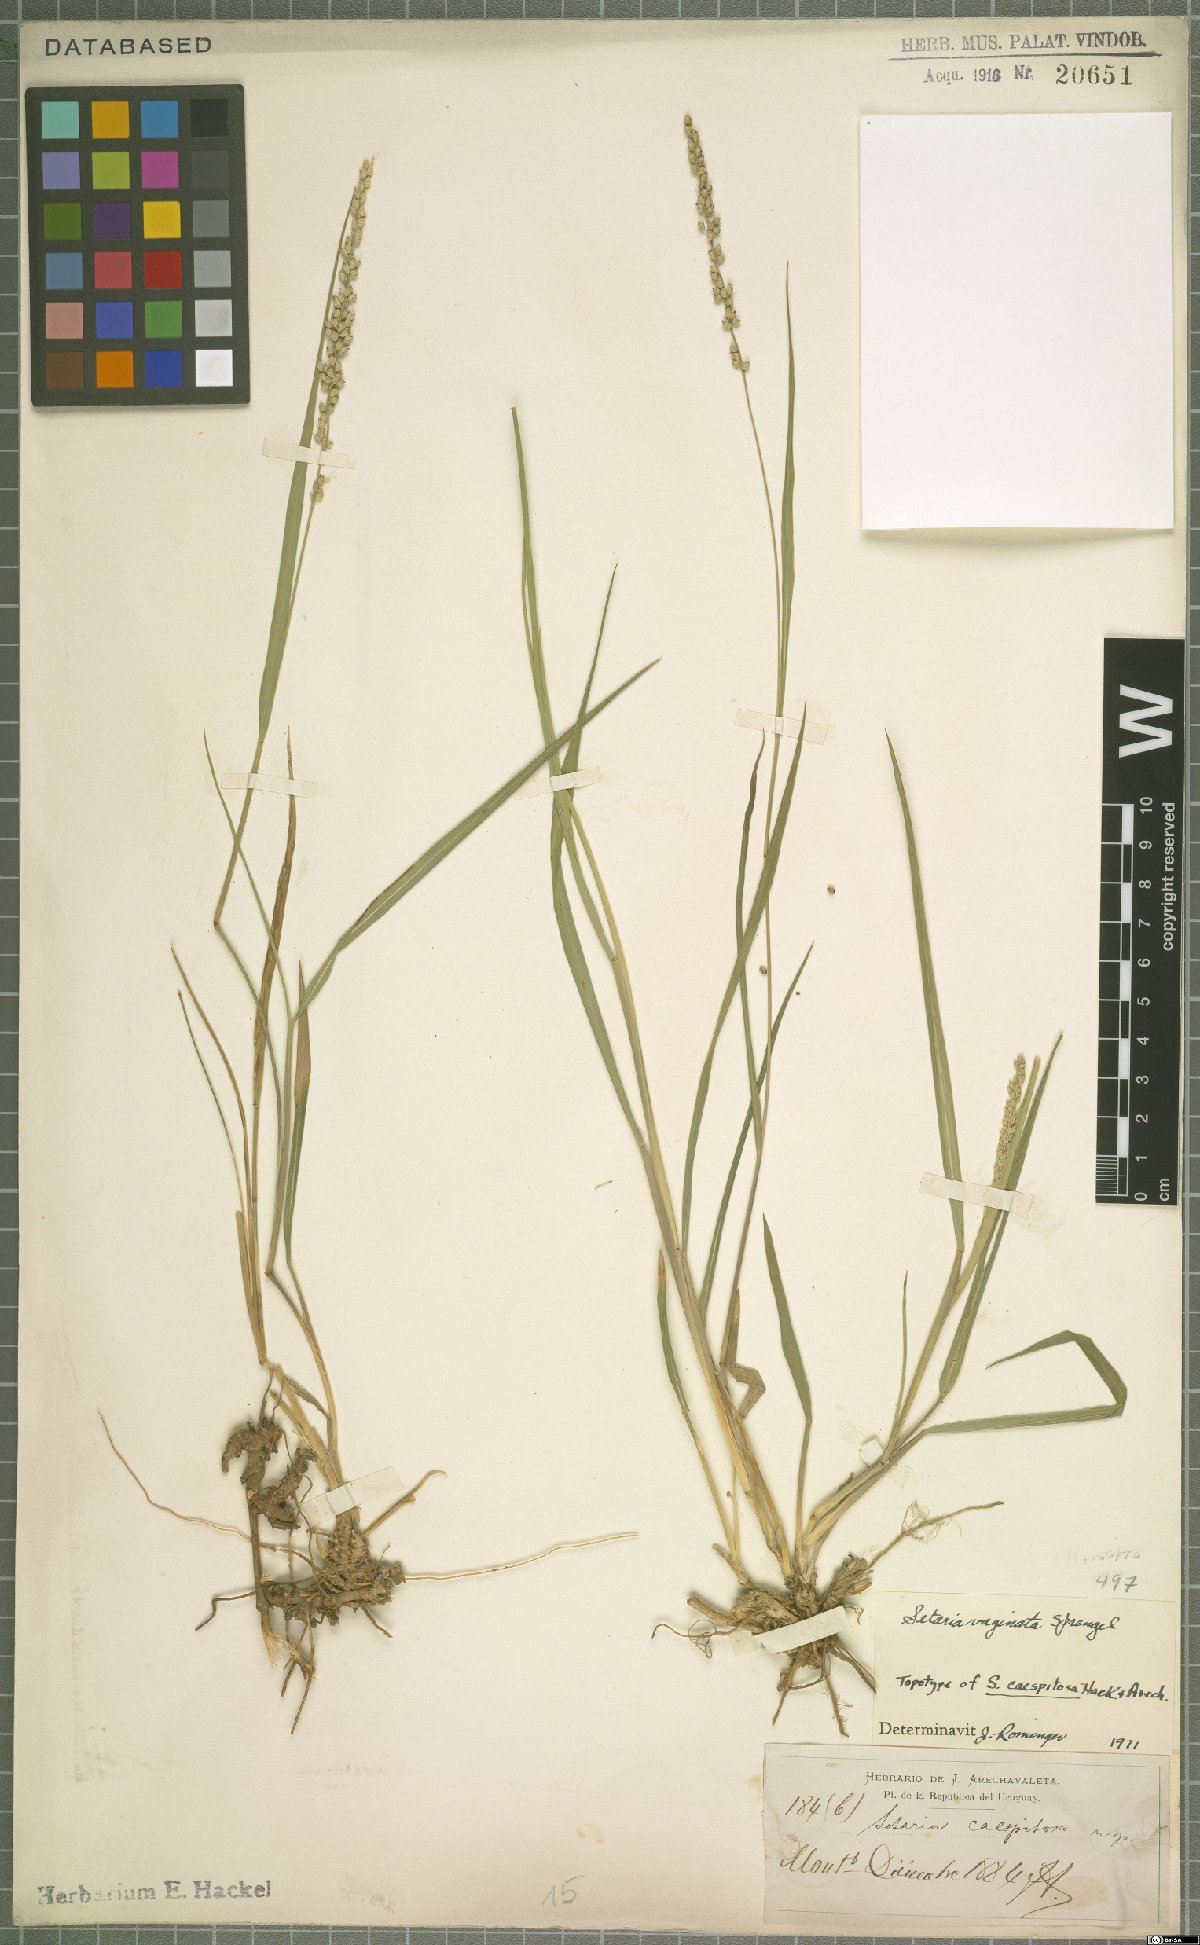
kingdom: Plantae
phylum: Tracheophyta
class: Liliopsida
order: Poales
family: Poaceae
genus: Setaria
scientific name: Setaria vaginata
